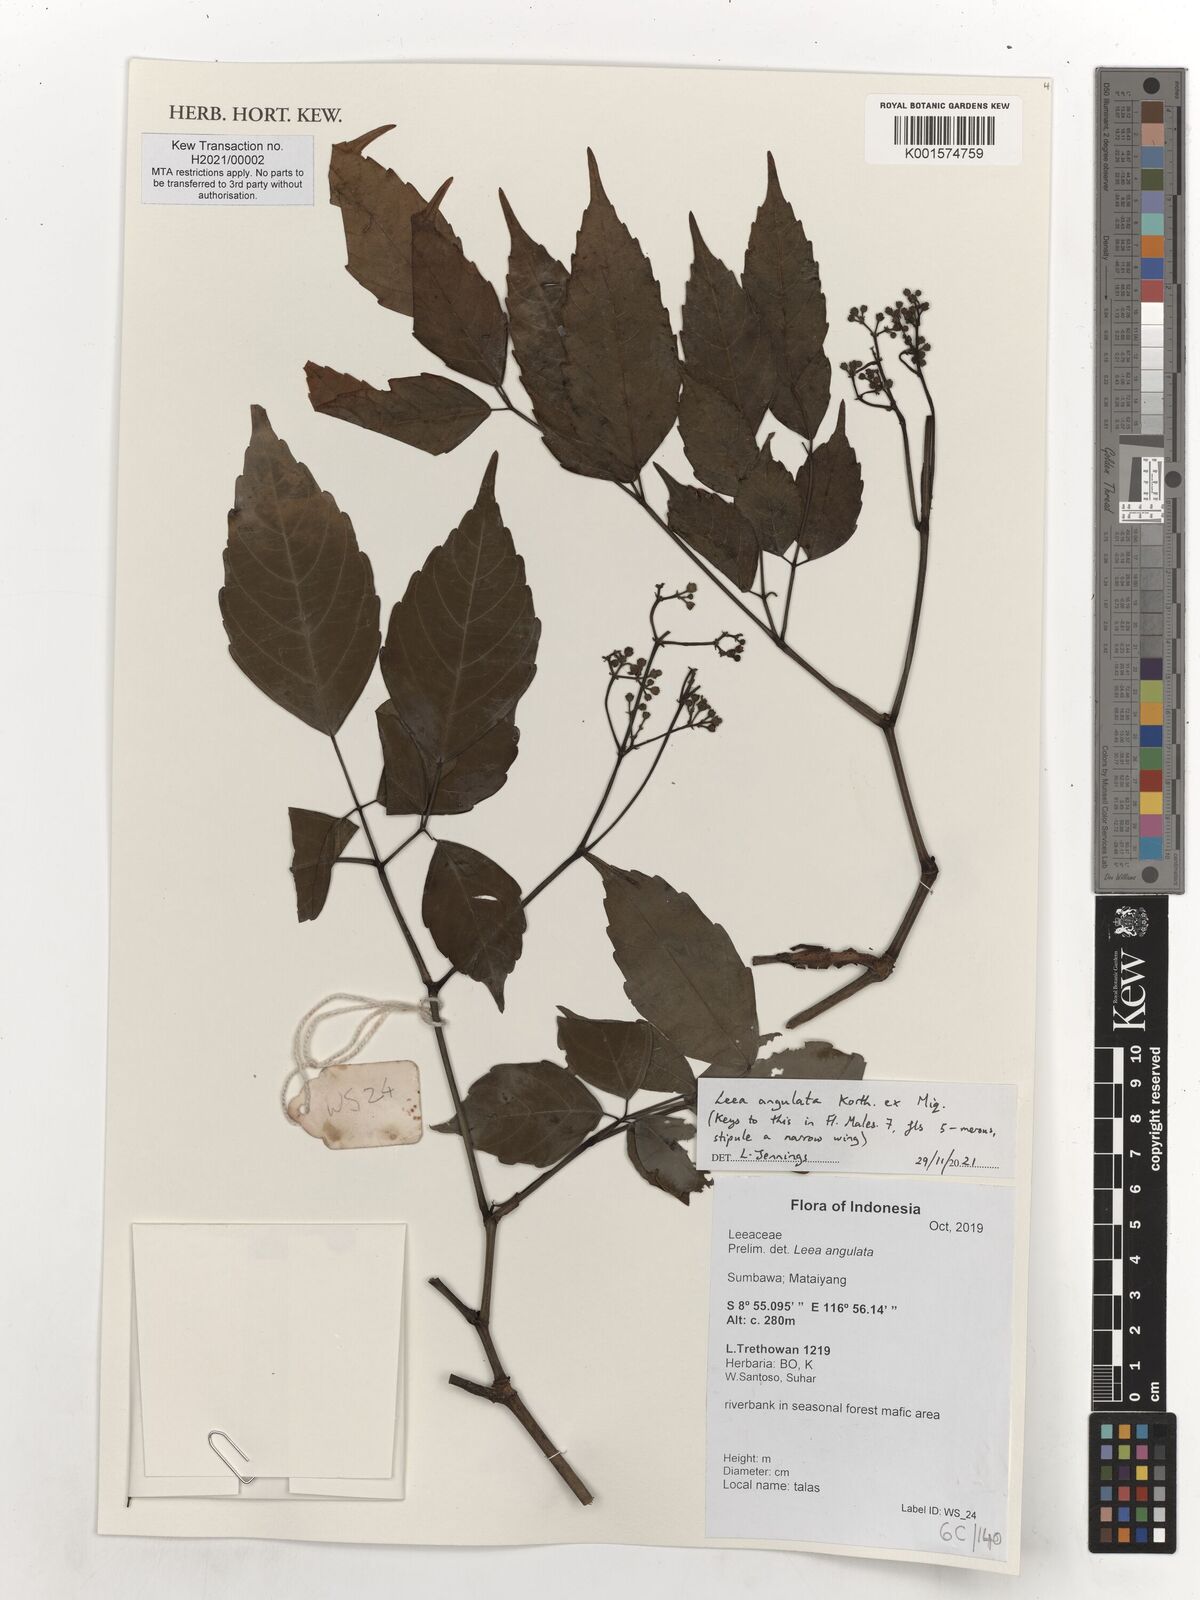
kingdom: Plantae
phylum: Tracheophyta
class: Magnoliopsida
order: Vitales
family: Vitaceae
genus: Leea
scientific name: Leea angulata
